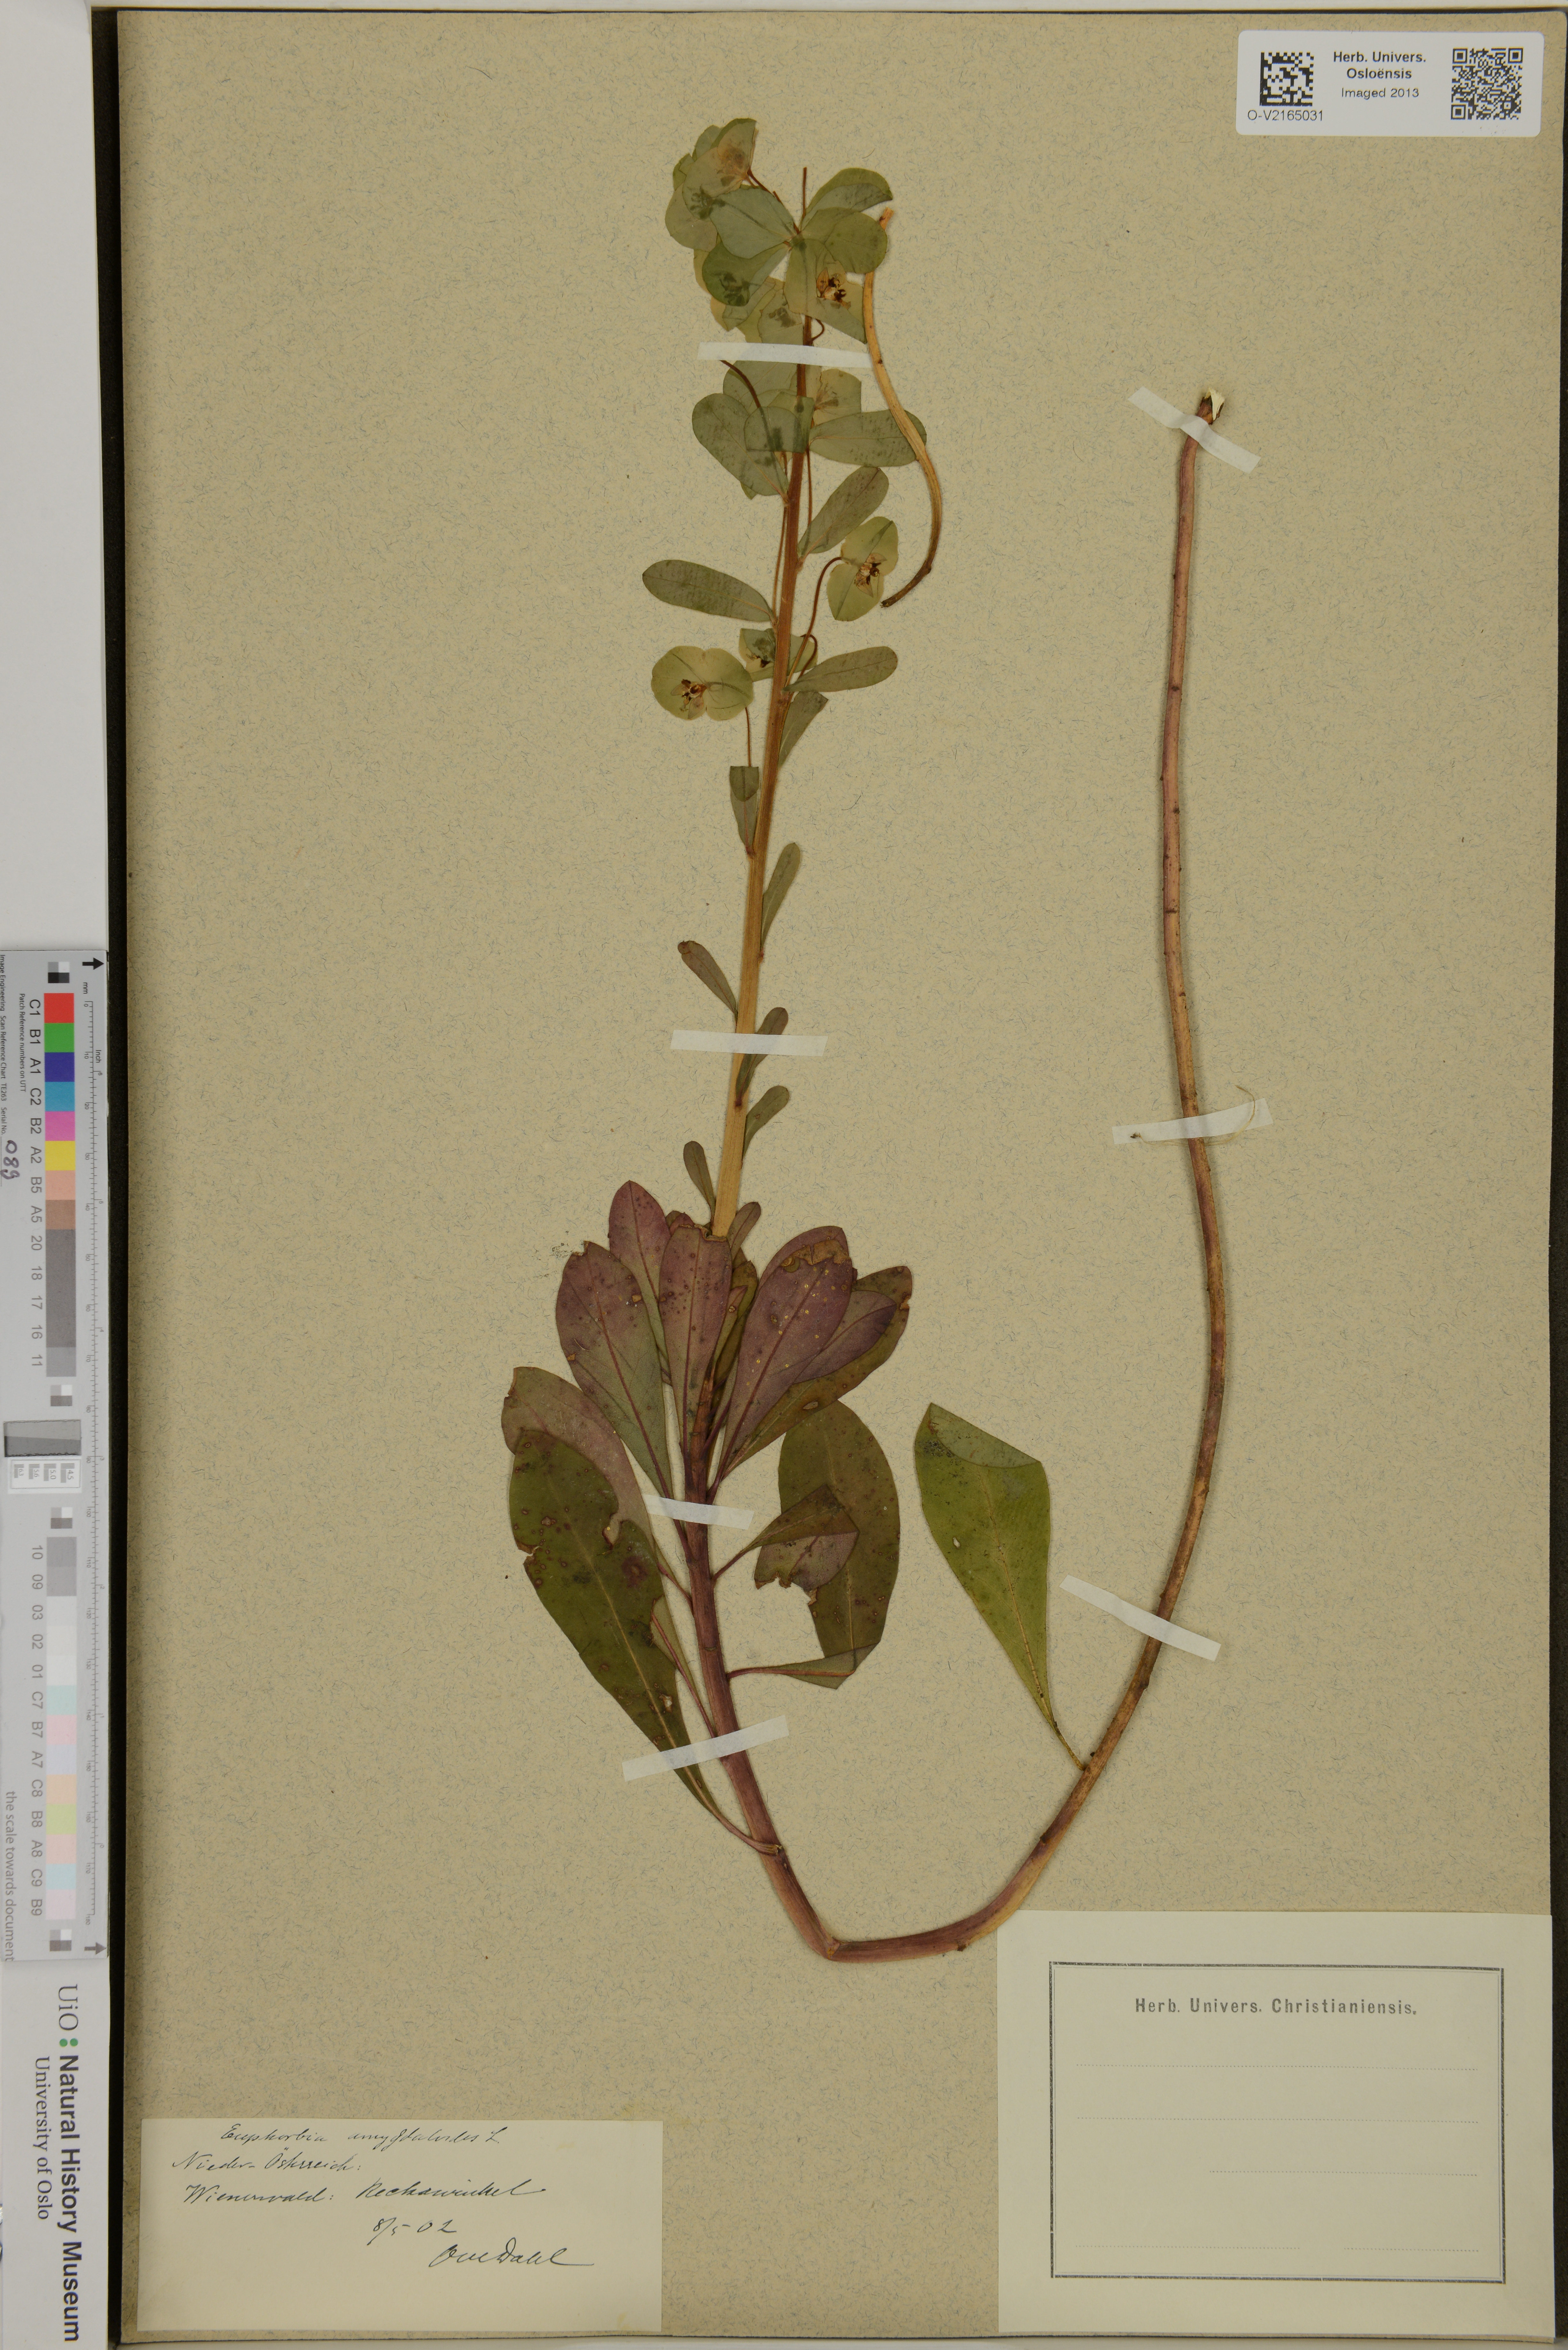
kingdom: Plantae
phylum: Tracheophyta
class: Magnoliopsida
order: Malpighiales
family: Euphorbiaceae
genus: Euphorbia
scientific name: Euphorbia amygdaloides
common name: Wood spurge
